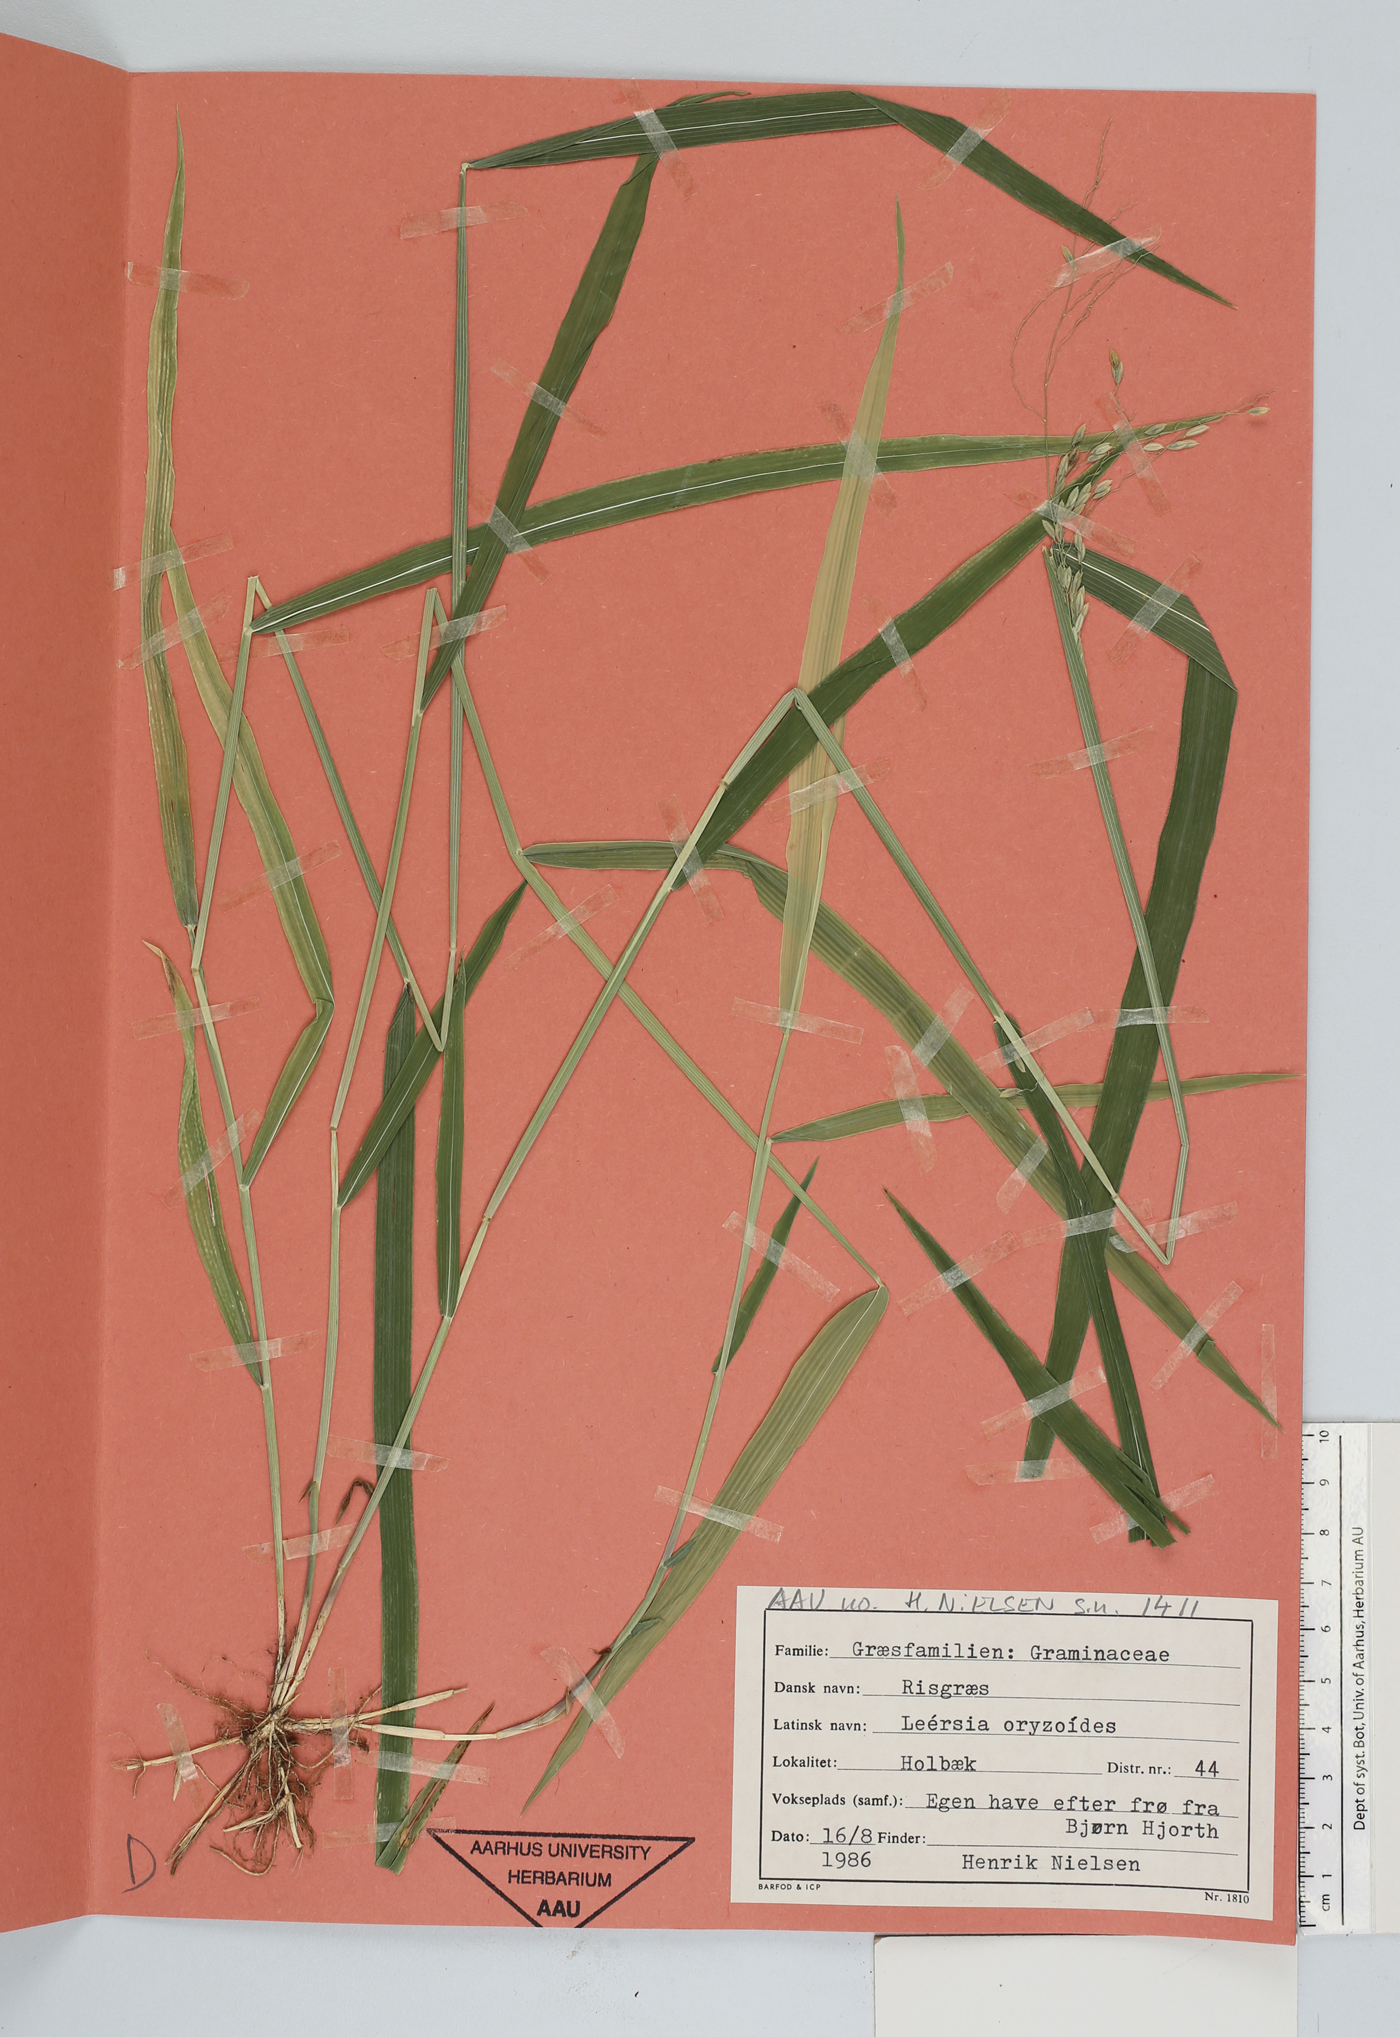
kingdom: Plantae
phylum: Tracheophyta
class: Liliopsida
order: Poales
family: Poaceae
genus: Leersia
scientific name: Leersia oryzoides
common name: Cut-grass
